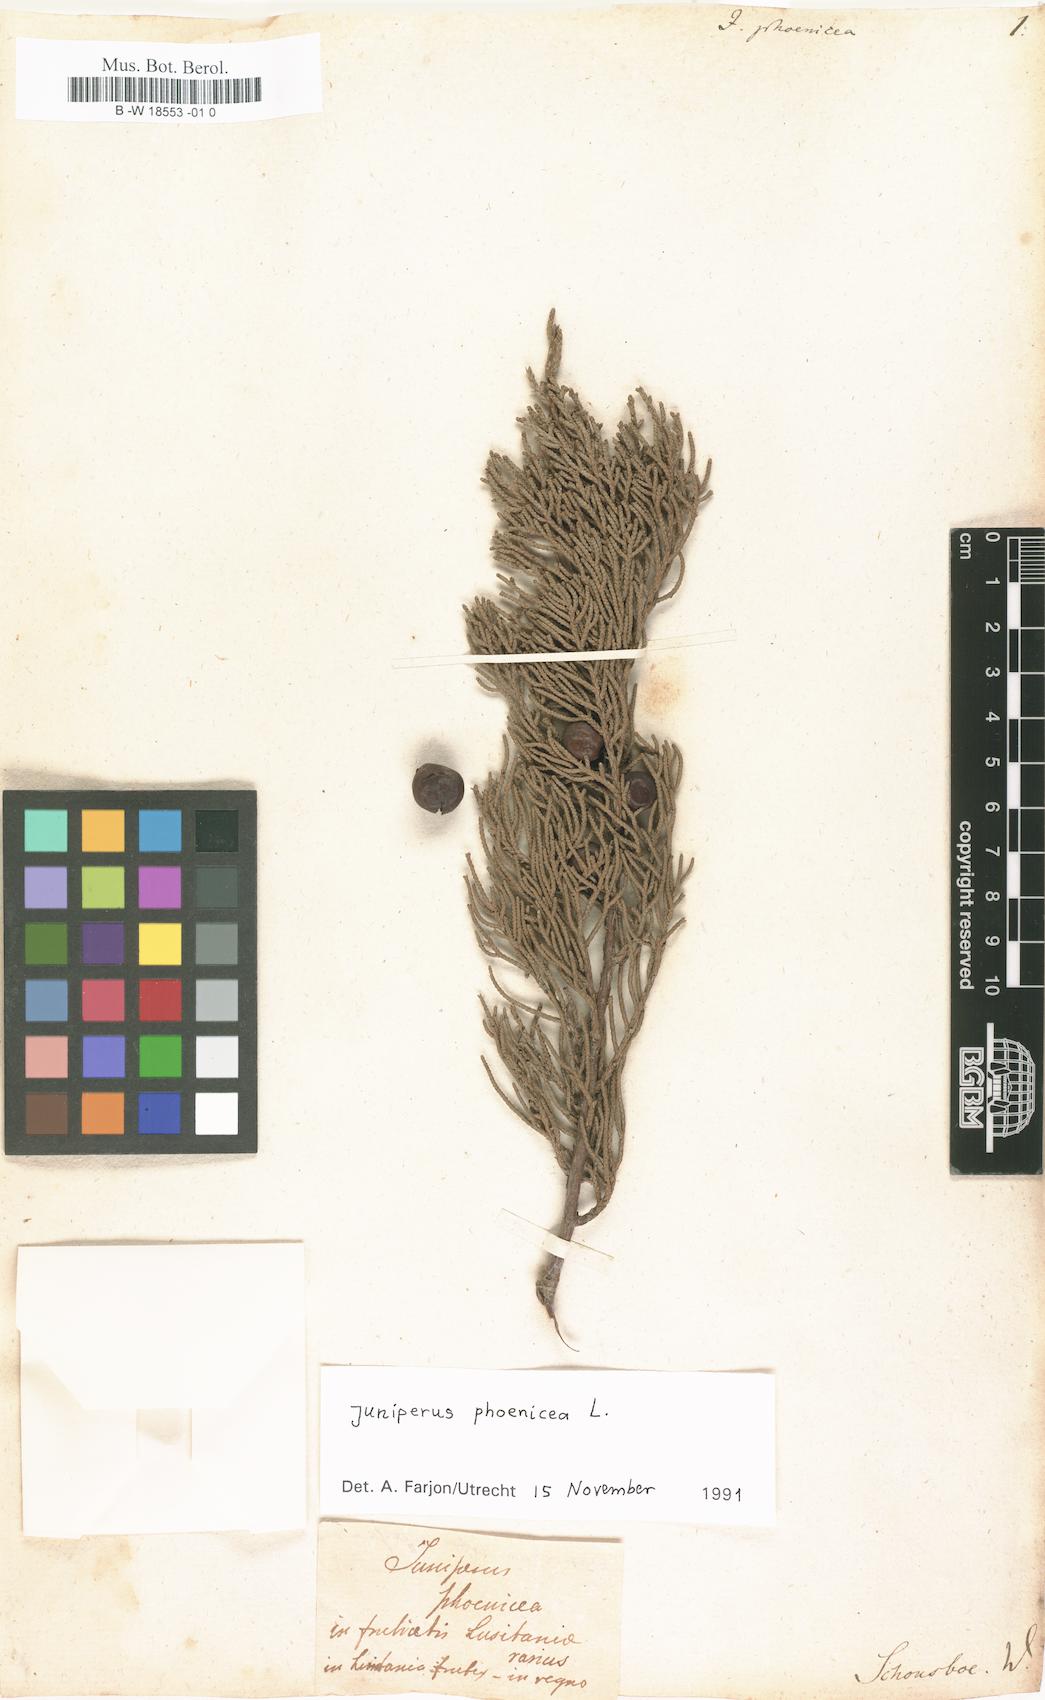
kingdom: Plantae
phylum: Tracheophyta
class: Pinopsida
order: Pinales
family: Cupressaceae
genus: Juniperus
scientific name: Juniperus phoenicea
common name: Phoenician juniper
